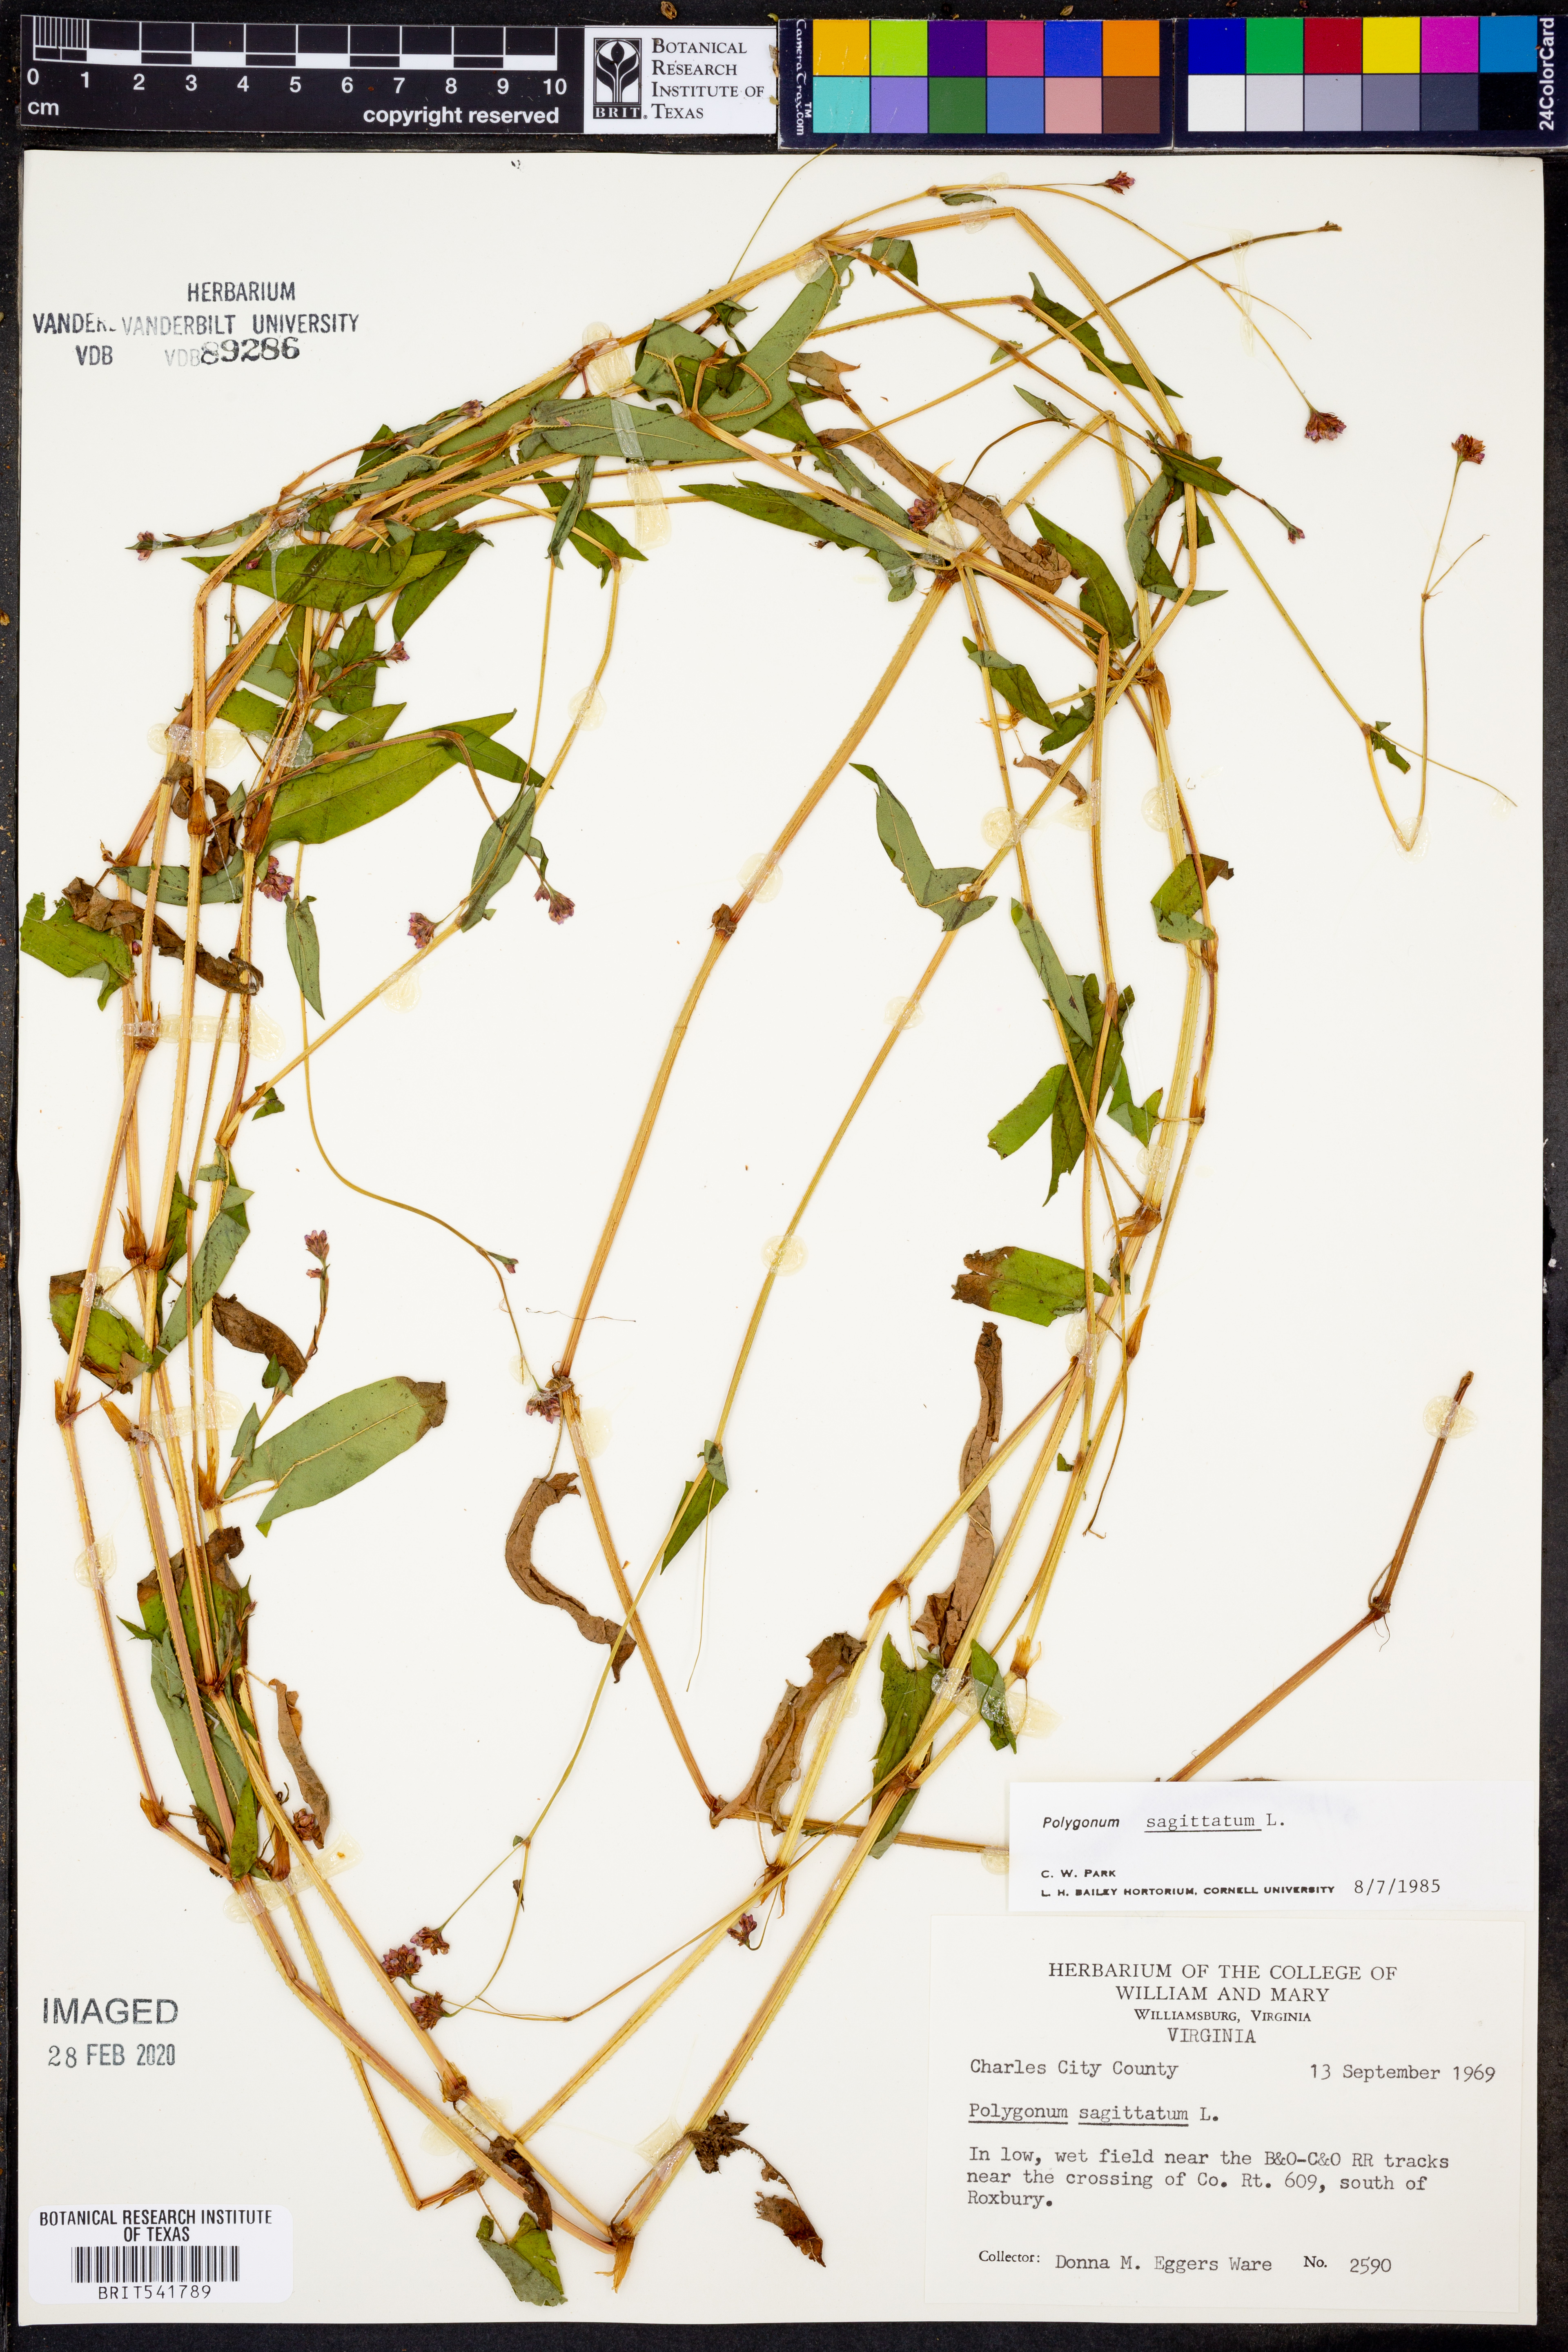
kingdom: Plantae
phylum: Tracheophyta
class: Magnoliopsida
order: Caryophyllales
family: Polygonaceae
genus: Persicaria
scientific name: Persicaria sagittata
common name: American tearthumb
